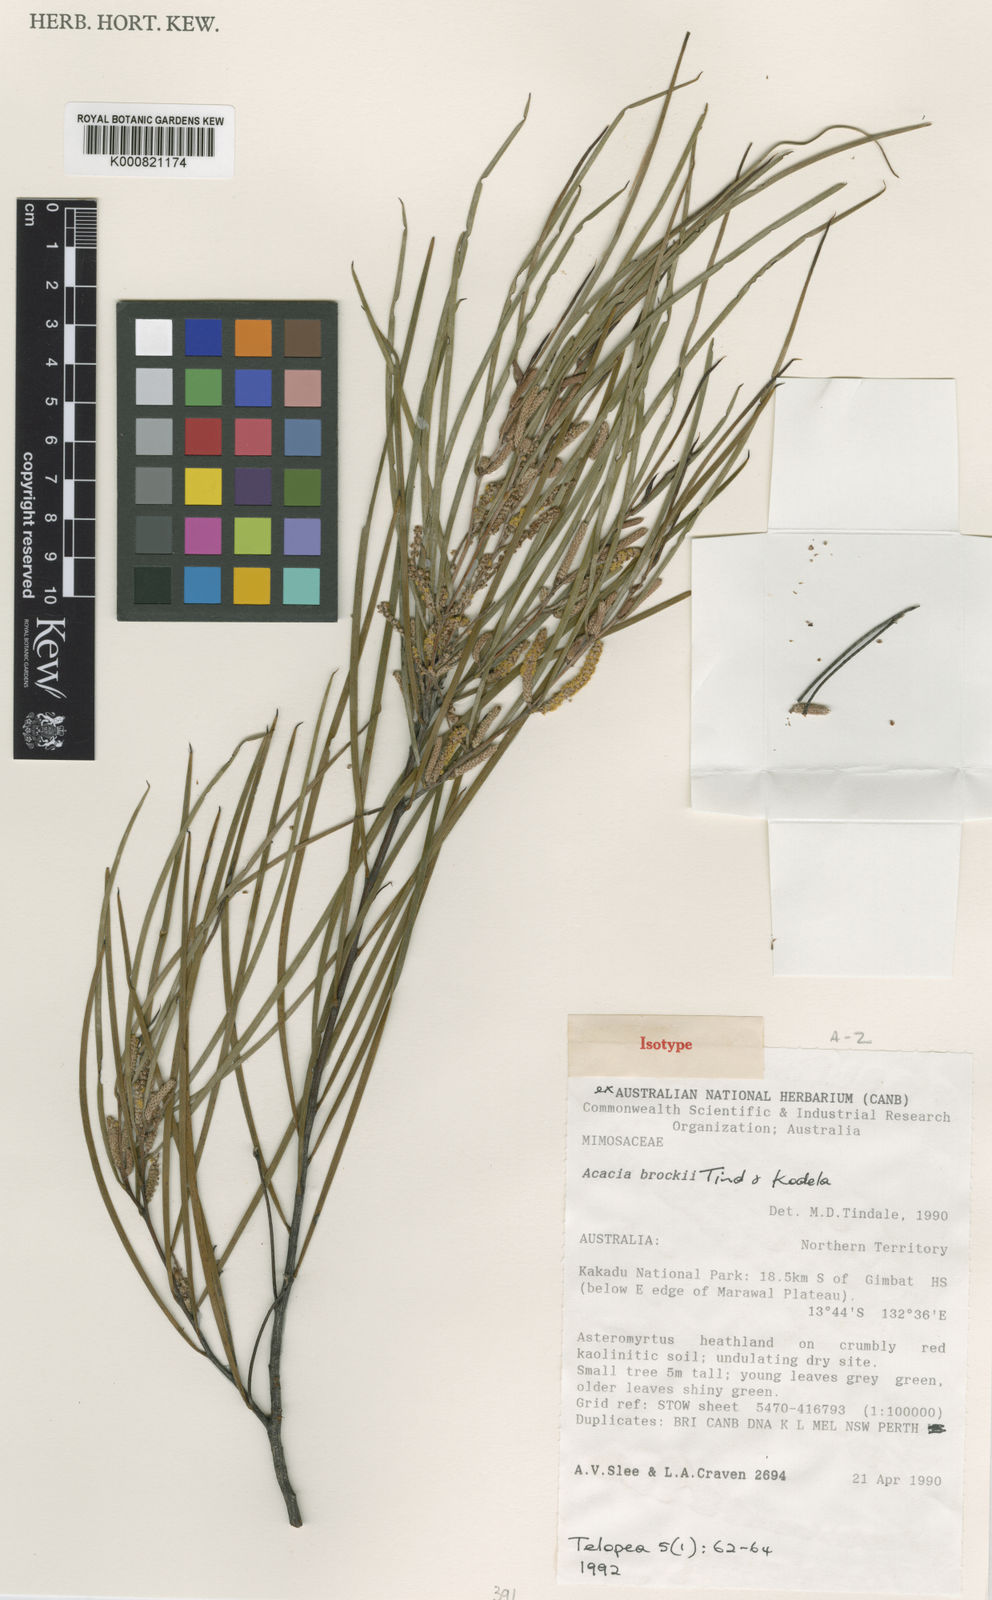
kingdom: Plantae
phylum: Tracheophyta
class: Magnoliopsida
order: Fabales
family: Fabaceae
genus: Acacia
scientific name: Acacia brockii
